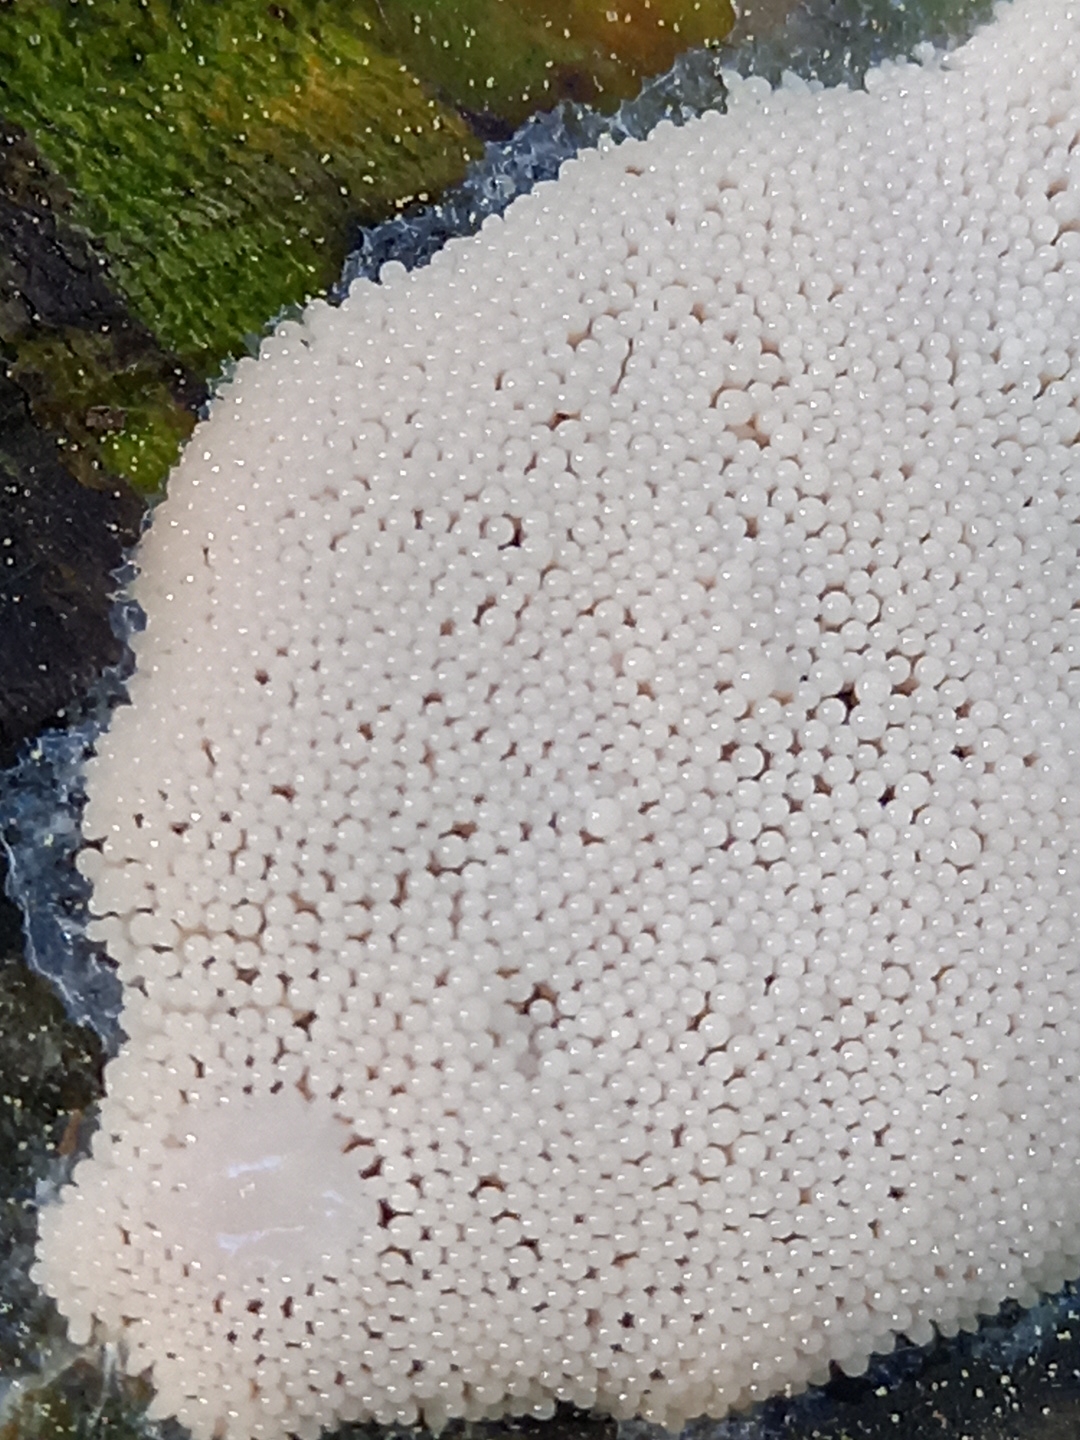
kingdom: Protozoa
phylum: Mycetozoa
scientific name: Mycetozoa
